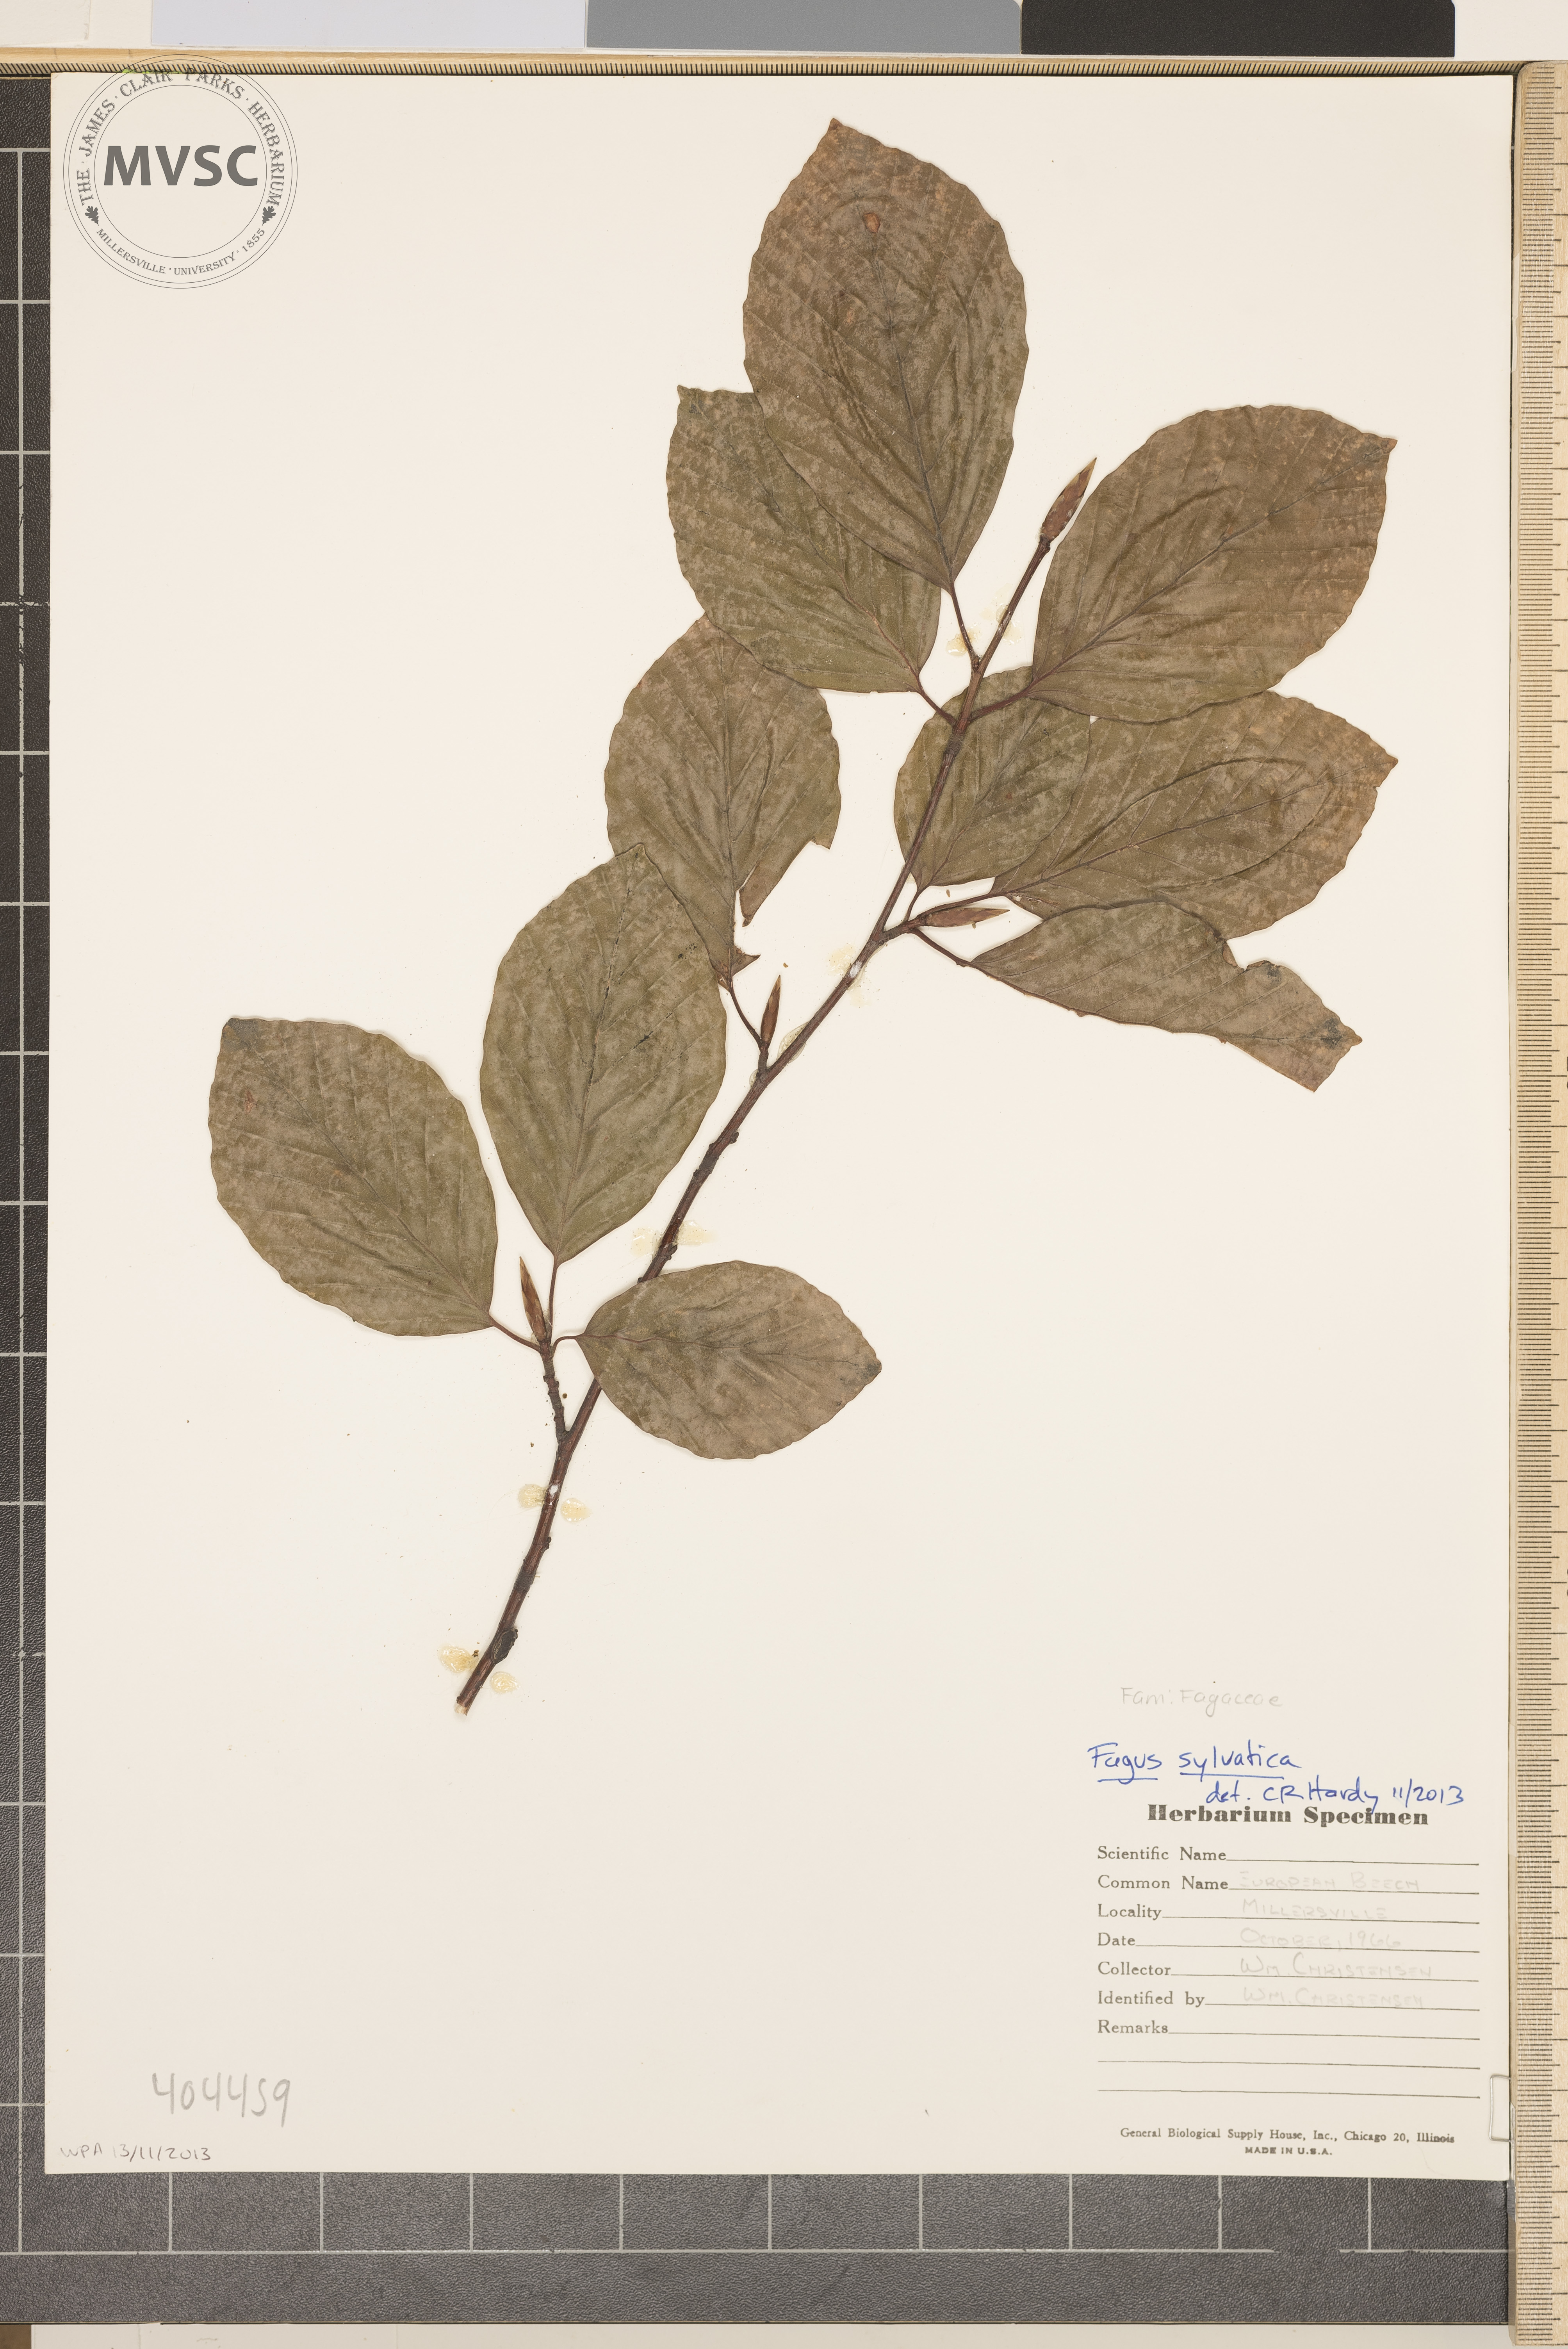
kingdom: Plantae
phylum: Tracheophyta
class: Magnoliopsida
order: Fagales
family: Fagaceae
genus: Fagus
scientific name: Fagus sylvatica
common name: European Beech
